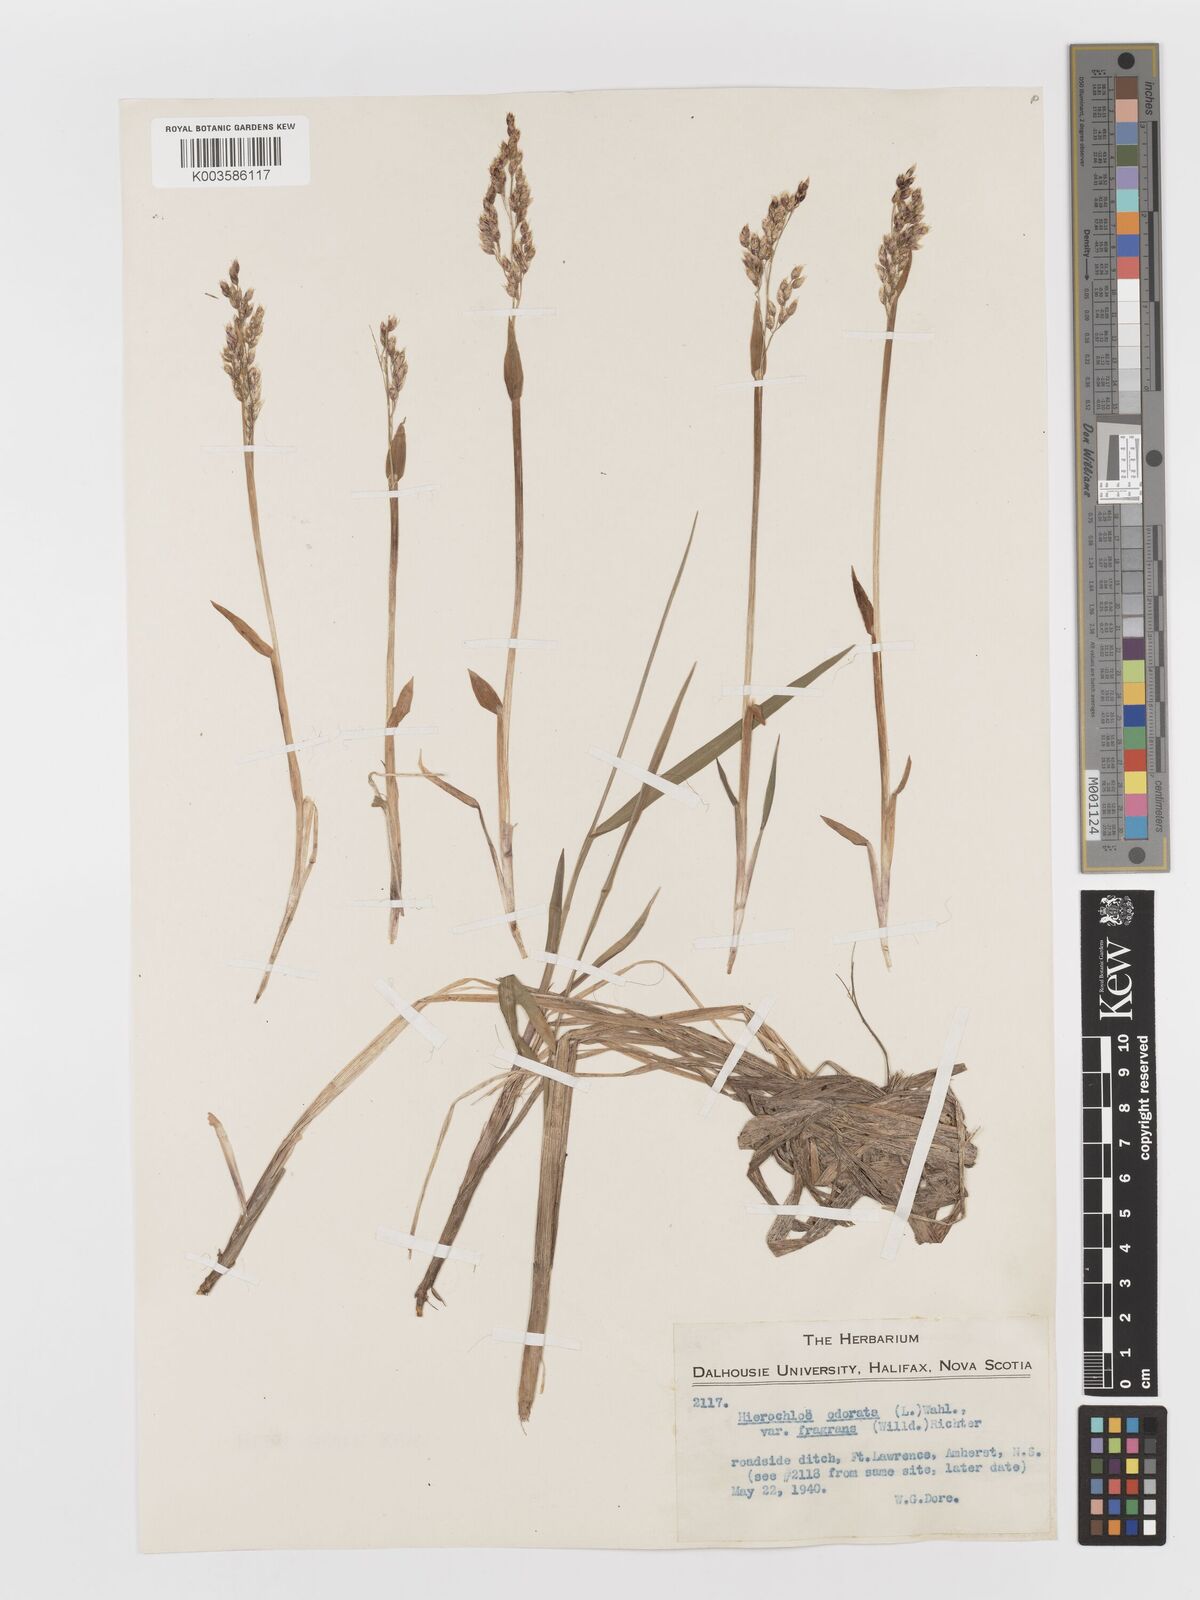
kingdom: Plantae
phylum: Tracheophyta
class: Liliopsida
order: Poales
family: Poaceae
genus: Anthoxanthum
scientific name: Anthoxanthum nitens
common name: Holy grass
